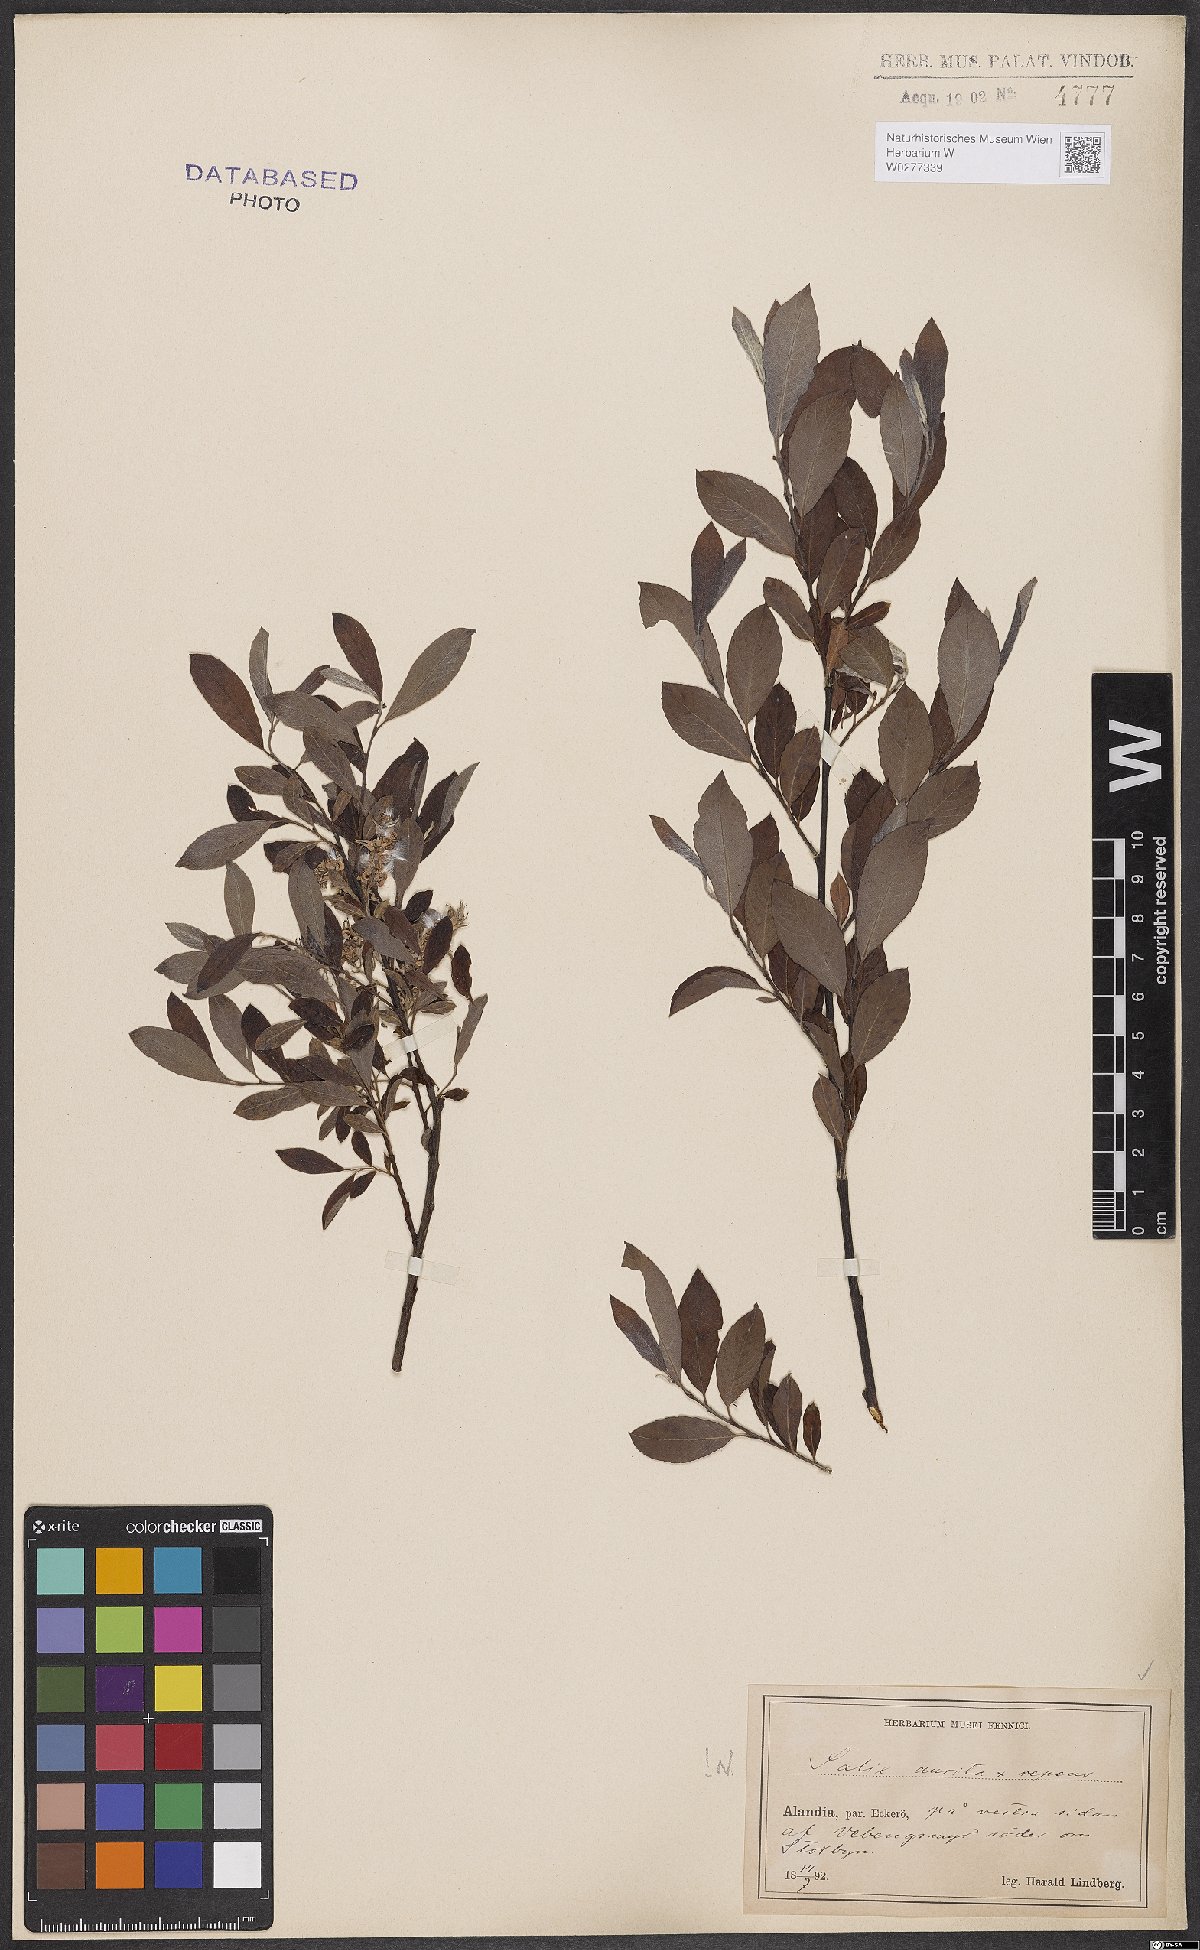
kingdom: Plantae
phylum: Tracheophyta
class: Magnoliopsida
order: Malpighiales
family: Salicaceae
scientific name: Salicaceae
